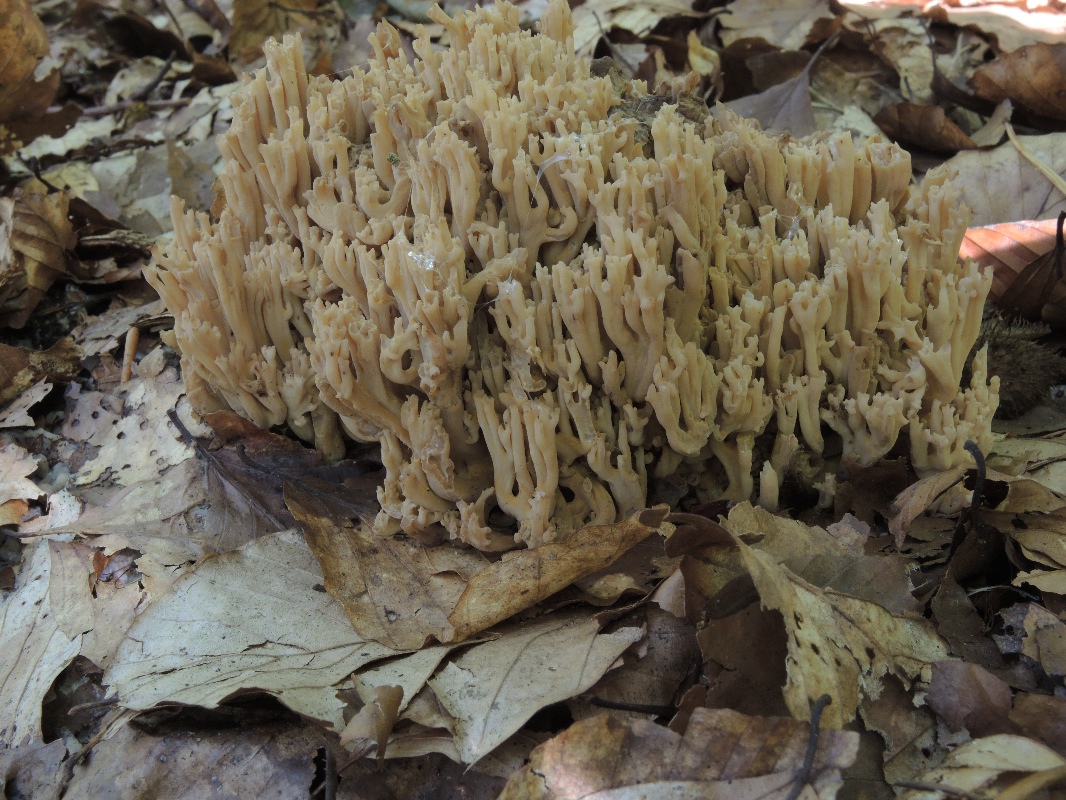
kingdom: Fungi
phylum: Basidiomycota
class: Agaricomycetes
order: Gomphales
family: Gomphaceae
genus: Ramaria
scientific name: Ramaria
